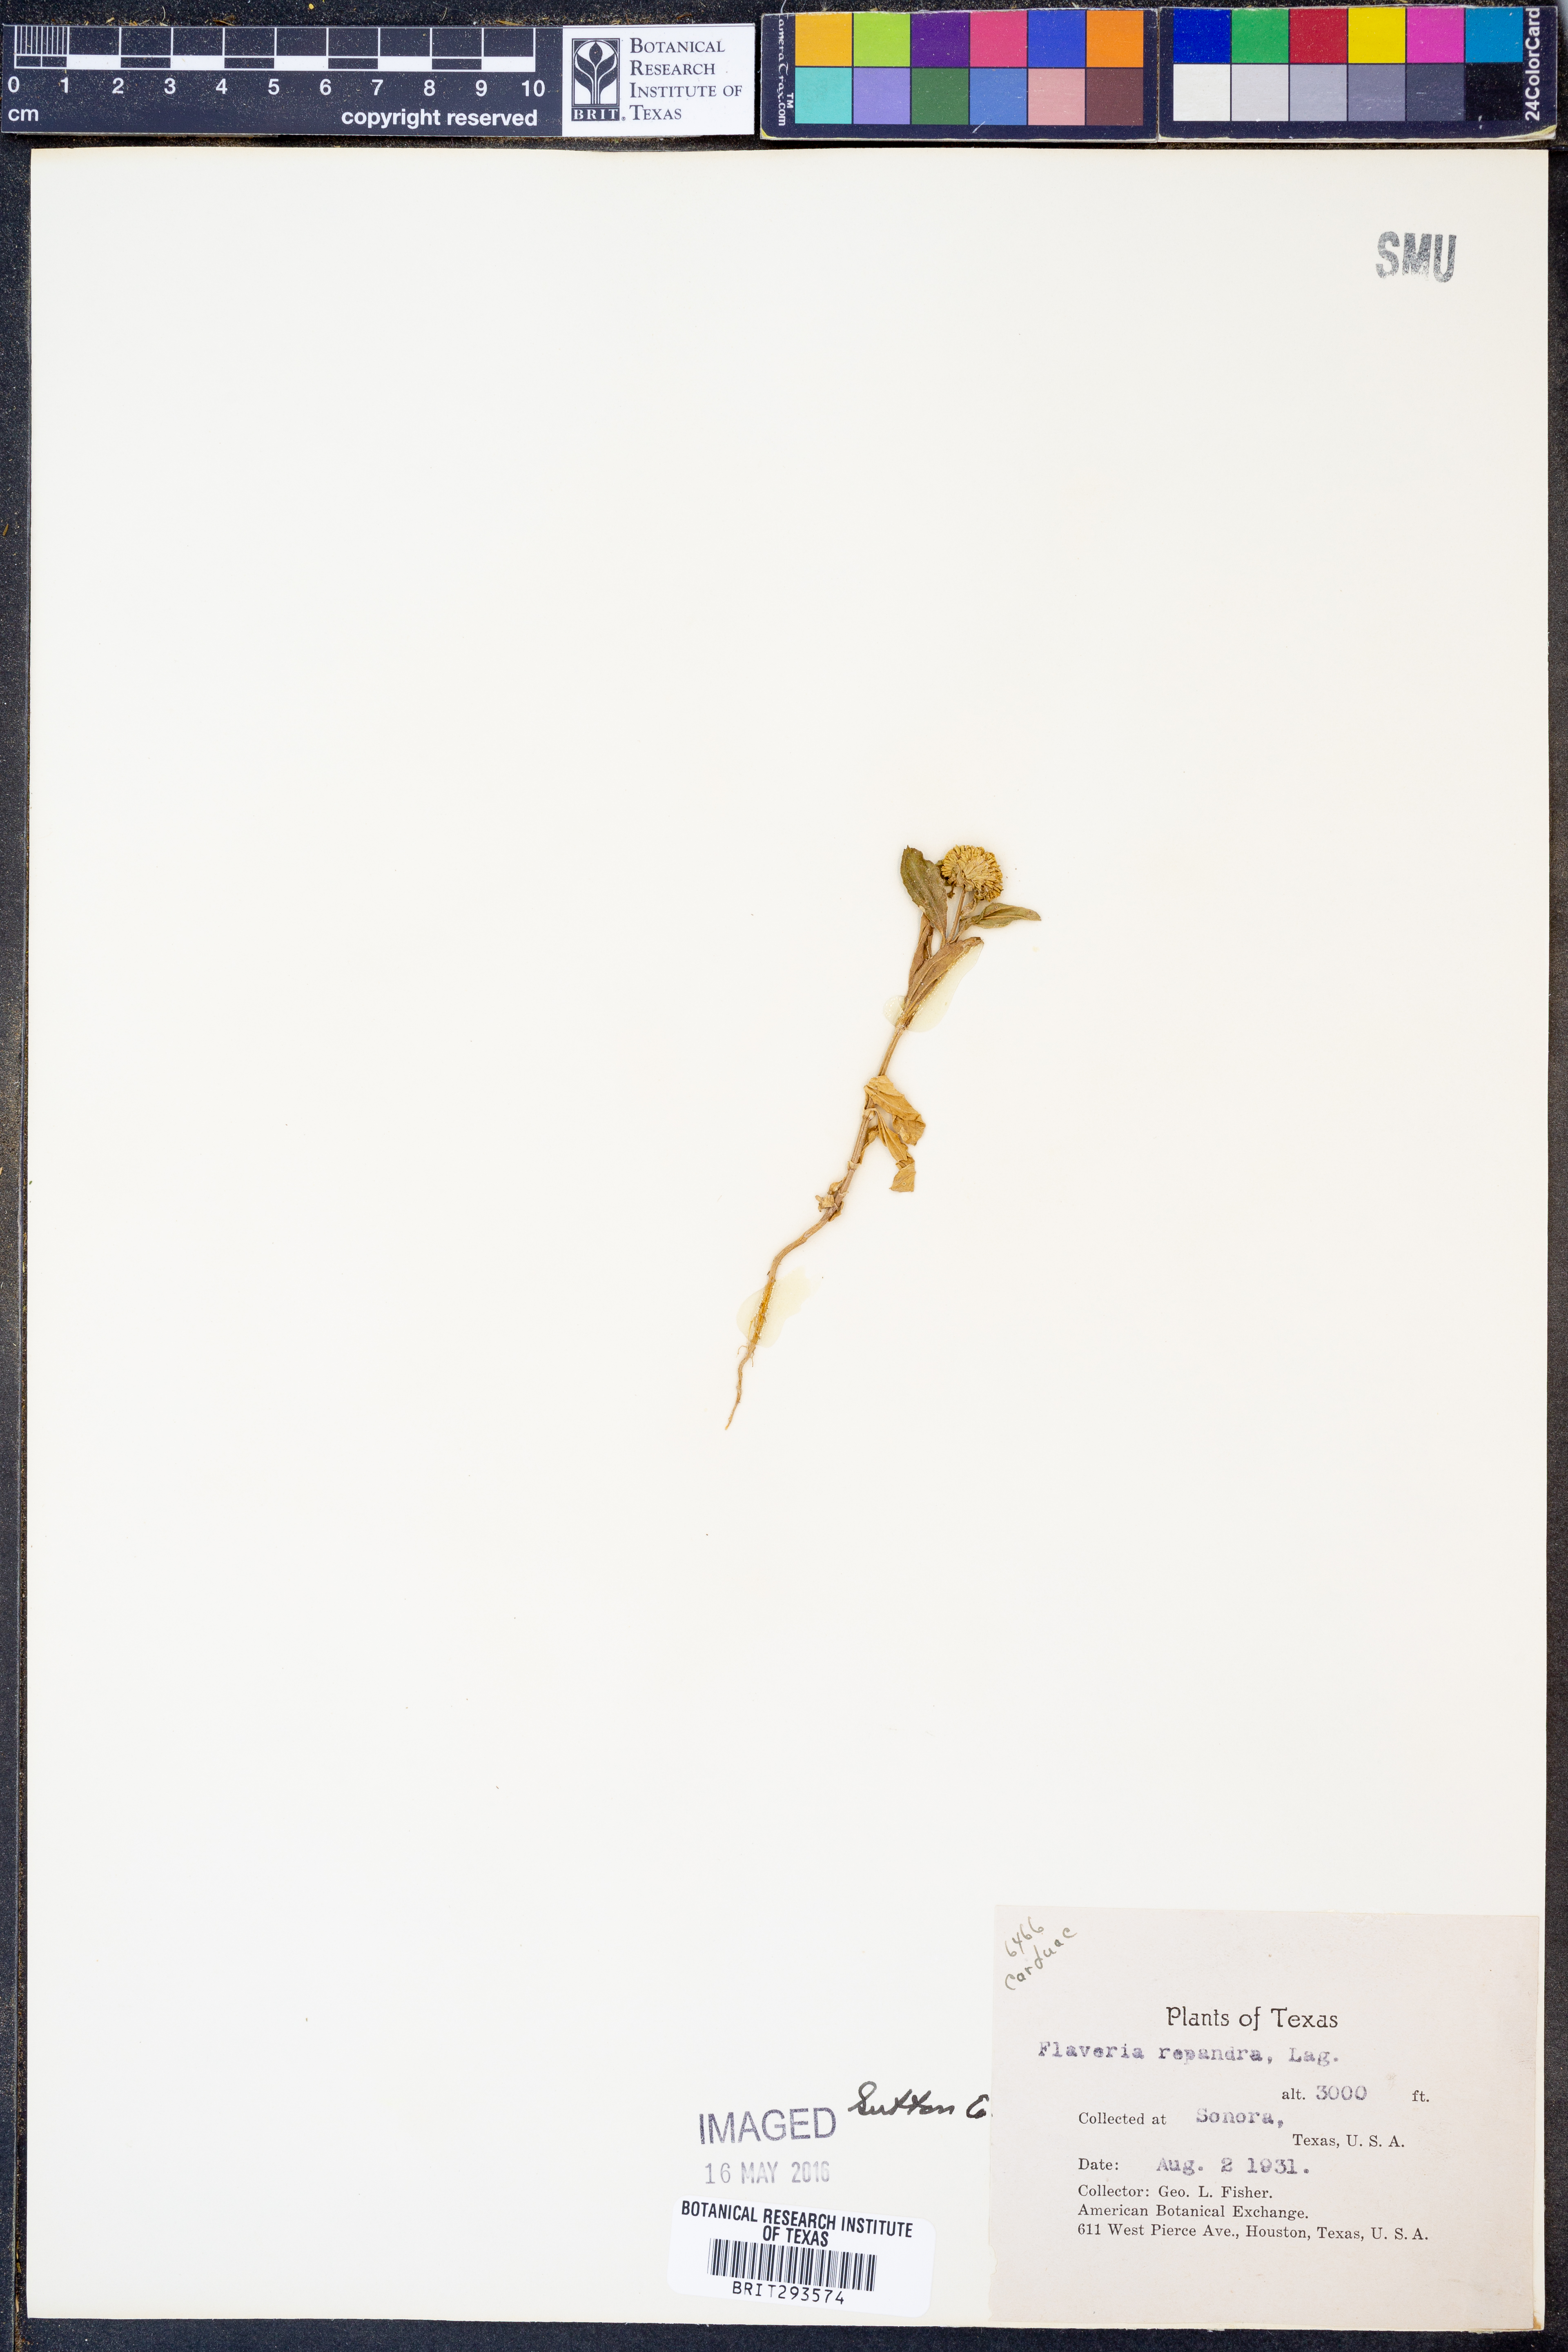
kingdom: Plantae
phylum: Tracheophyta
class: Magnoliopsida
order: Asterales
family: Asteraceae
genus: Flaveria
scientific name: Flaveria trinervia
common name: Clustered yellowtops
